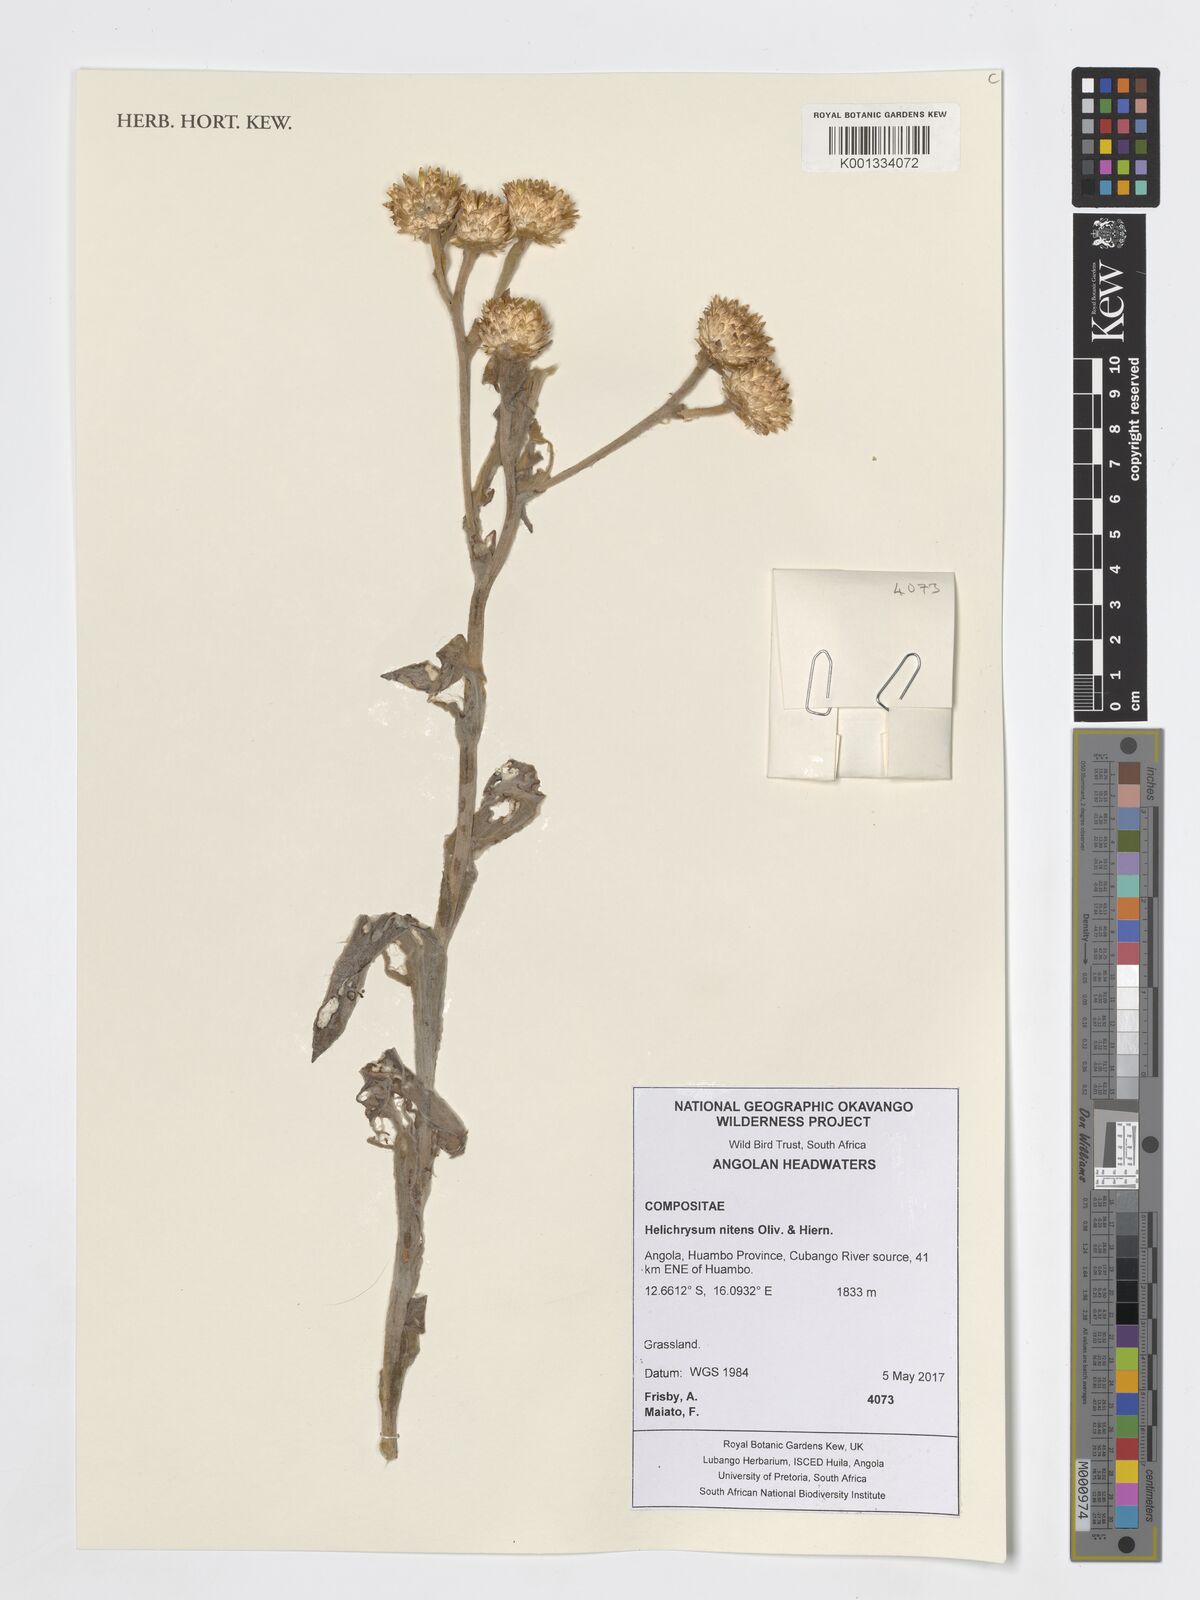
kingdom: Plantae
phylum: Tracheophyta
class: Magnoliopsida
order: Asterales
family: Asteraceae
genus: Helichrysum
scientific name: Helichrysum nitens
